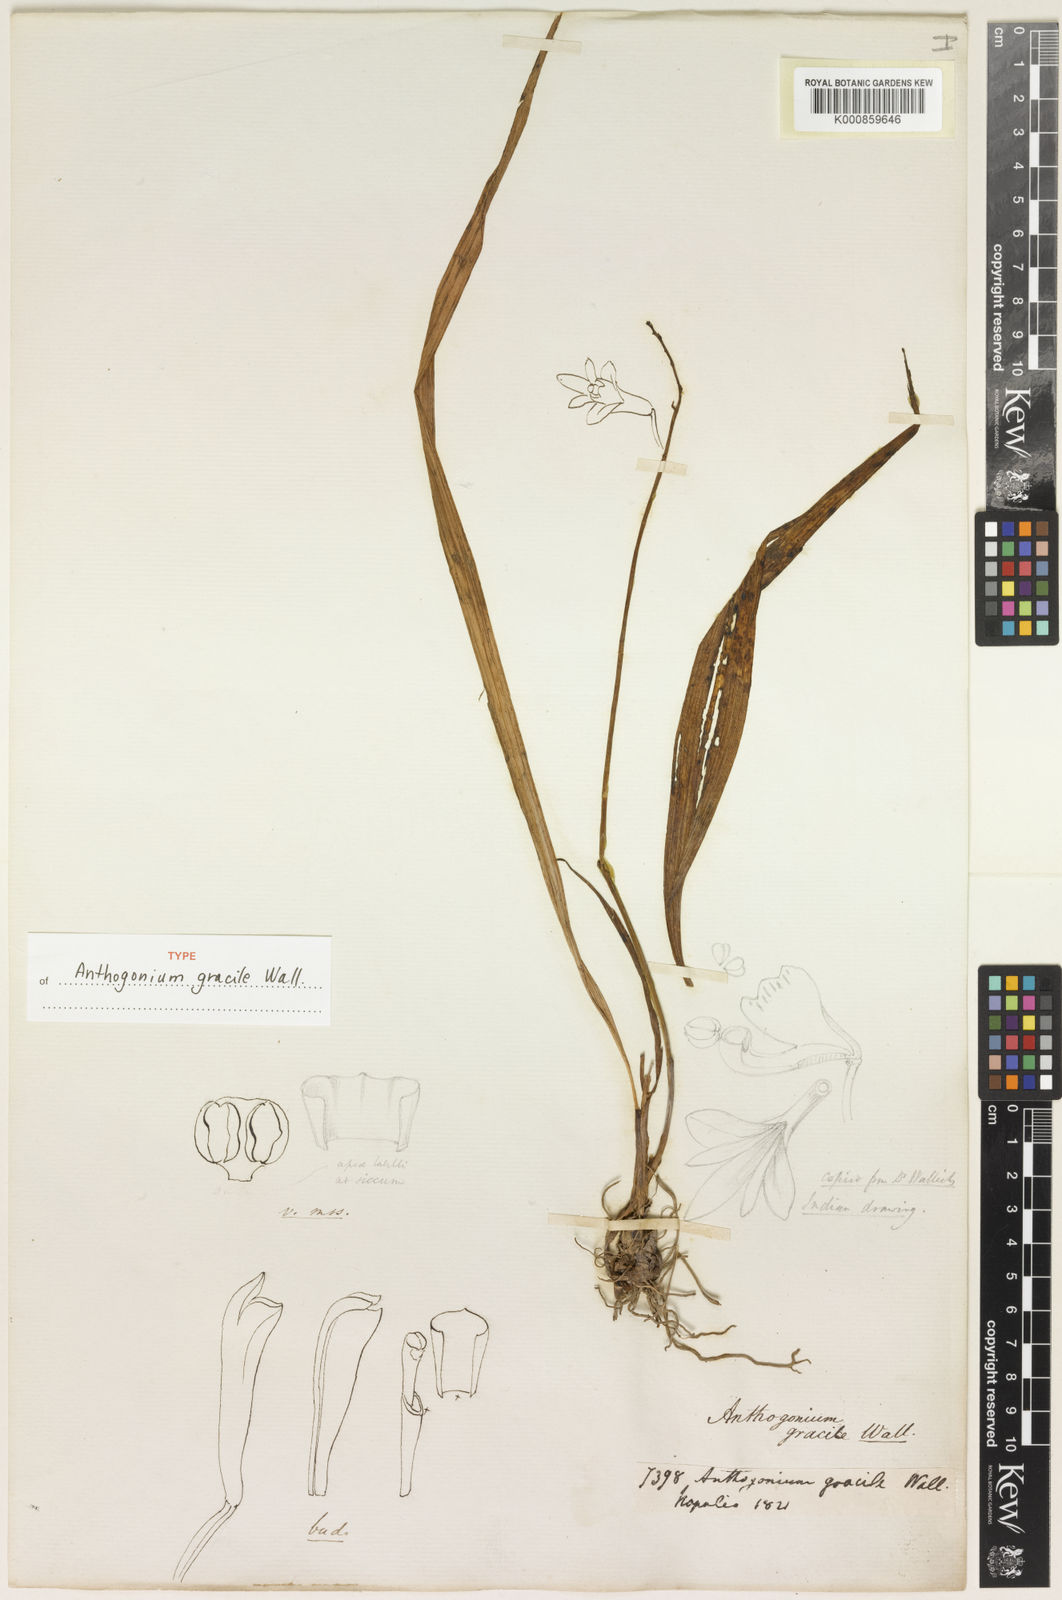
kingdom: Plantae
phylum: Tracheophyta
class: Liliopsida
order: Asparagales
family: Orchidaceae
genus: Anthogonium
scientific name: Anthogonium
